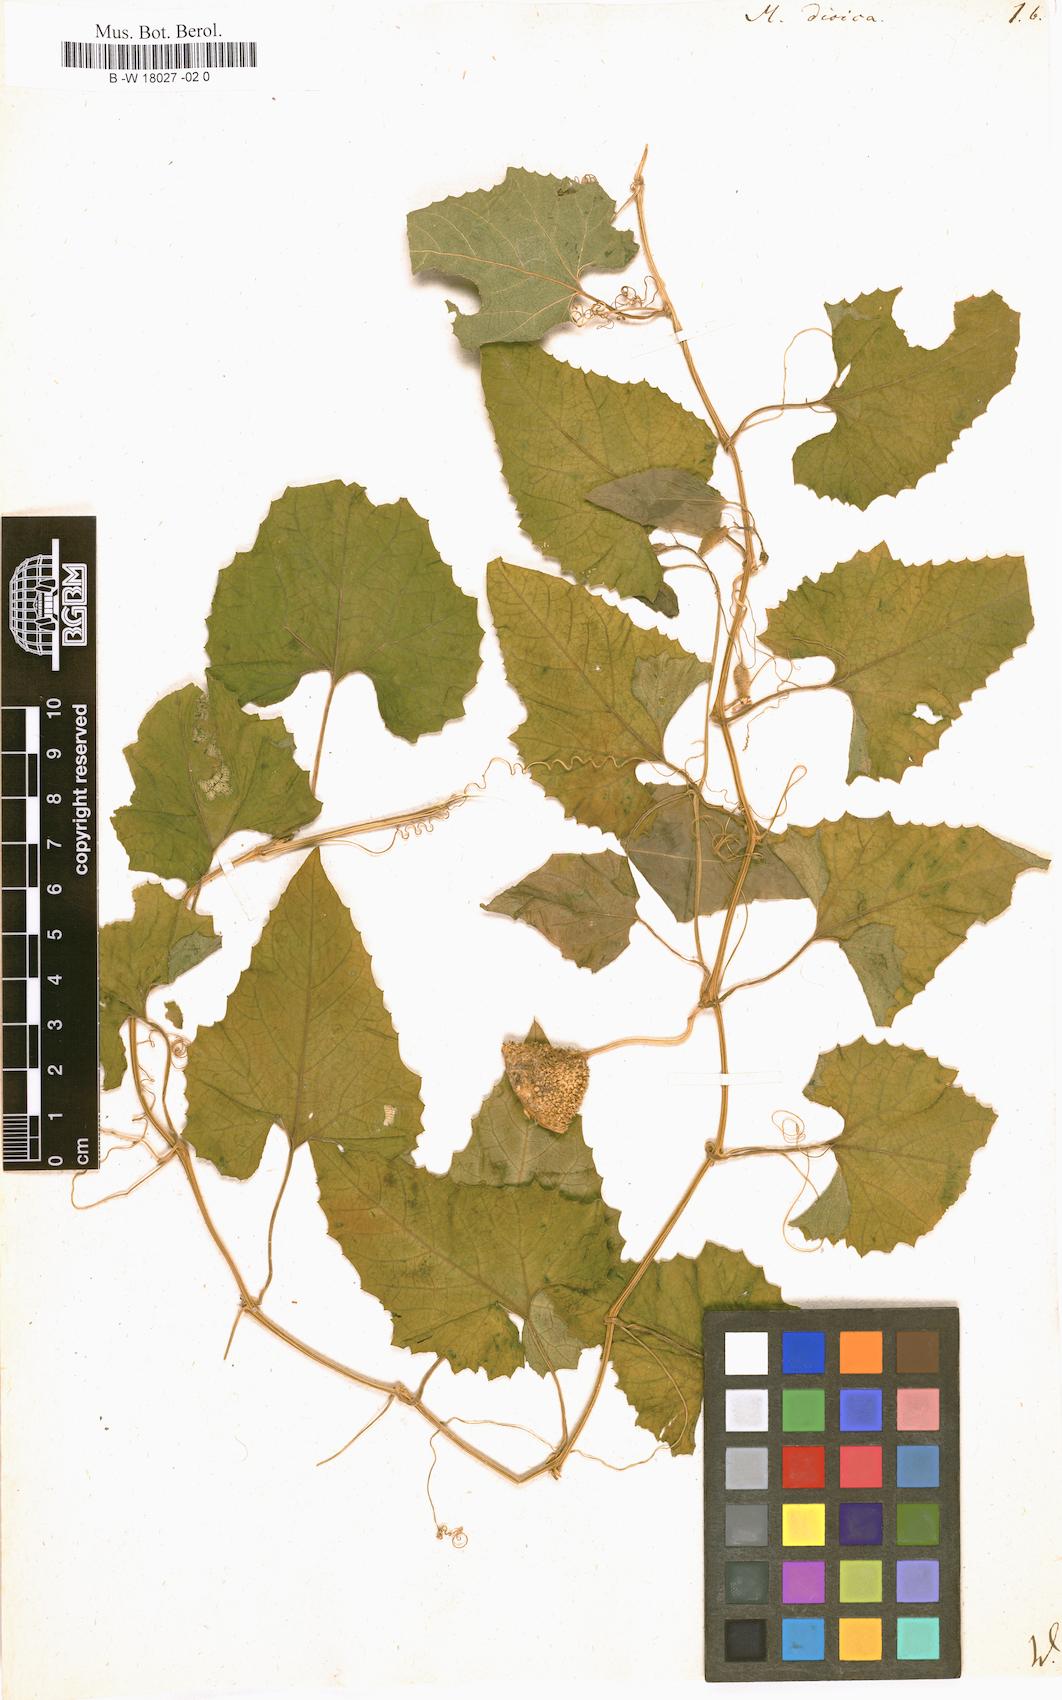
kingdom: Plantae
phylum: Tracheophyta
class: Magnoliopsida
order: Cucurbitales
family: Cucurbitaceae
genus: Momordica
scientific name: Momordica dioica
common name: Spine gourd
